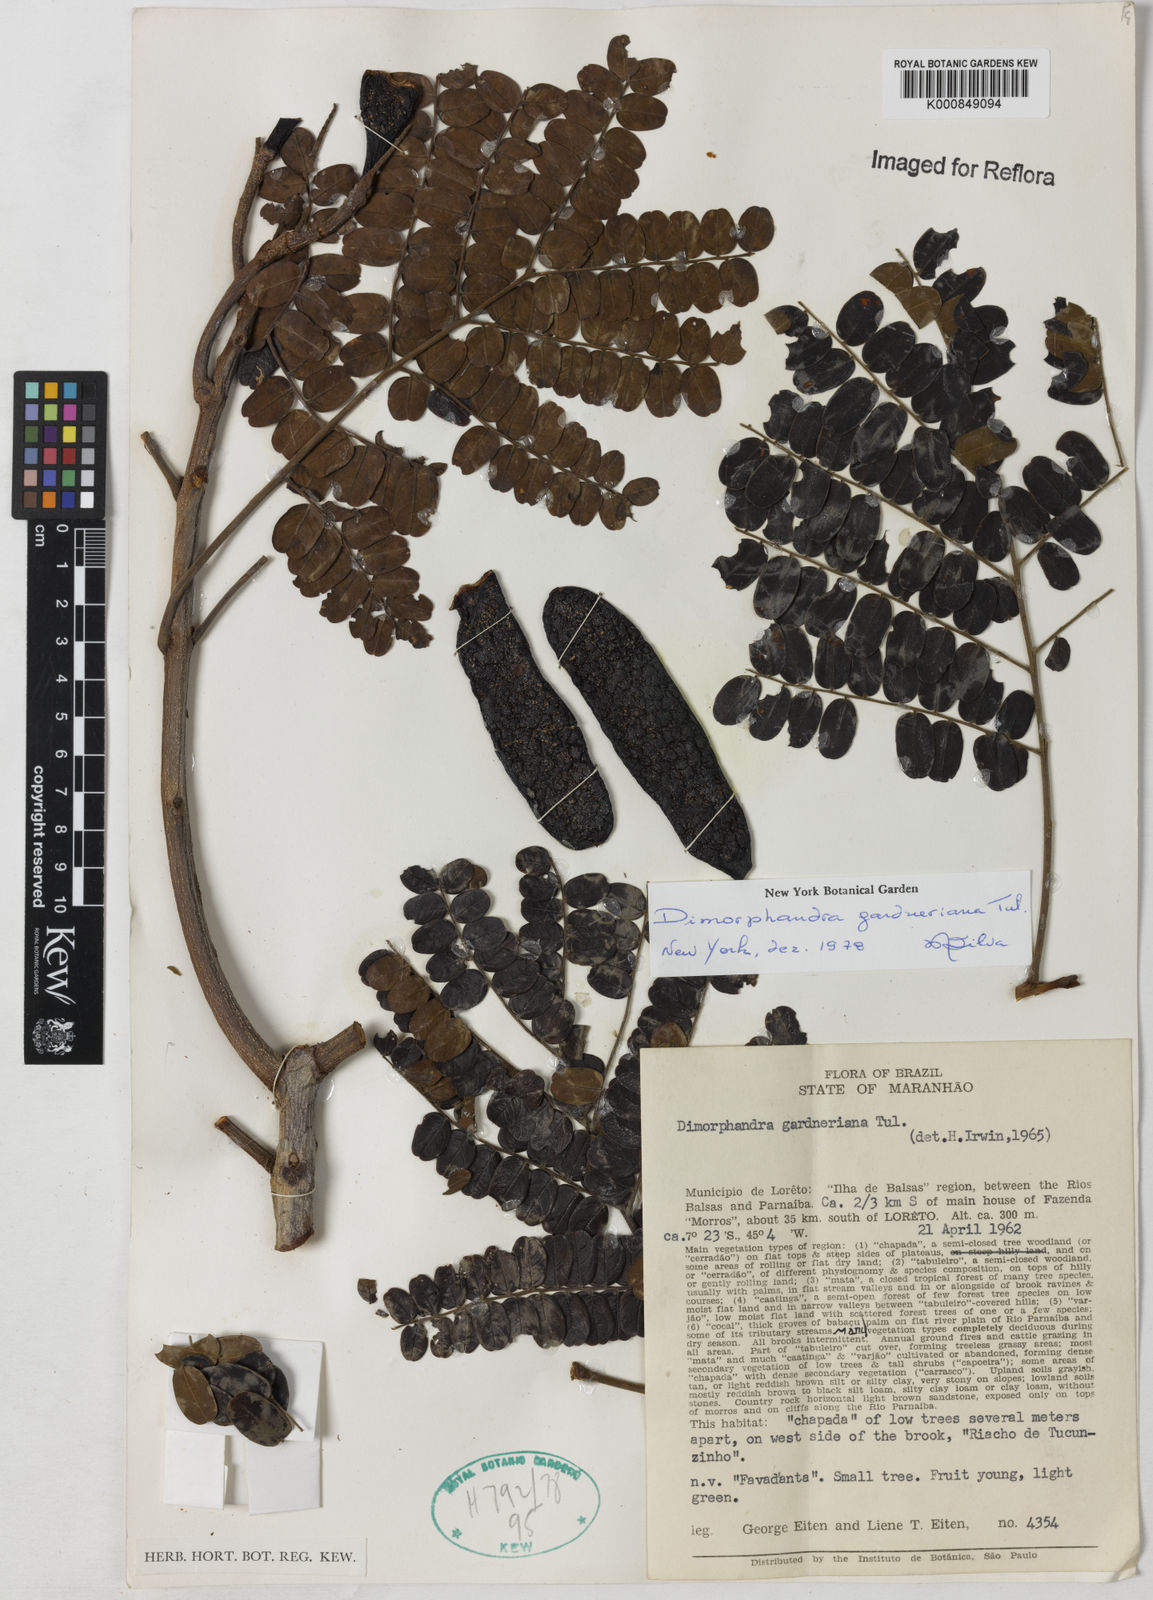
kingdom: Plantae
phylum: Tracheophyta
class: Magnoliopsida
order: Fabales
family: Fabaceae
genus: Dimorphandra
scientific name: Dimorphandra gardneriana
